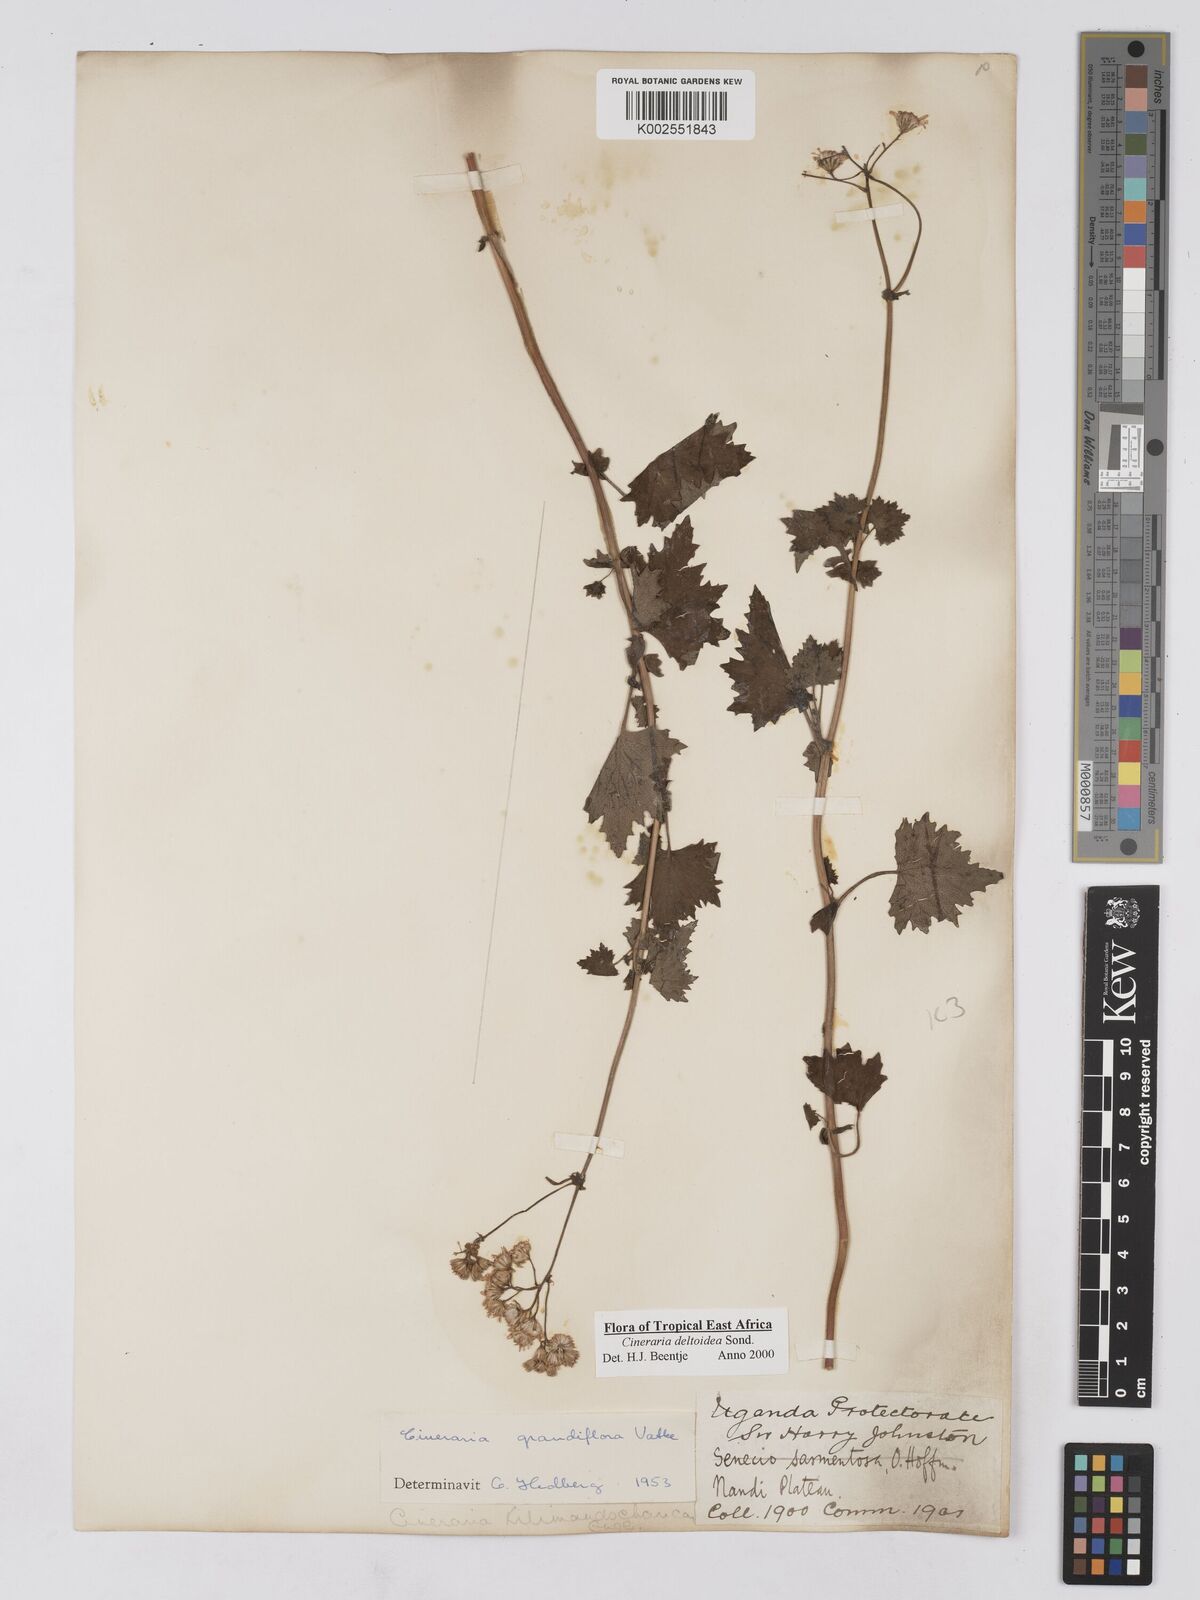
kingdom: Plantae
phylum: Tracheophyta
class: Magnoliopsida
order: Asterales
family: Asteraceae
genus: Cineraria
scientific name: Cineraria deltoidea
